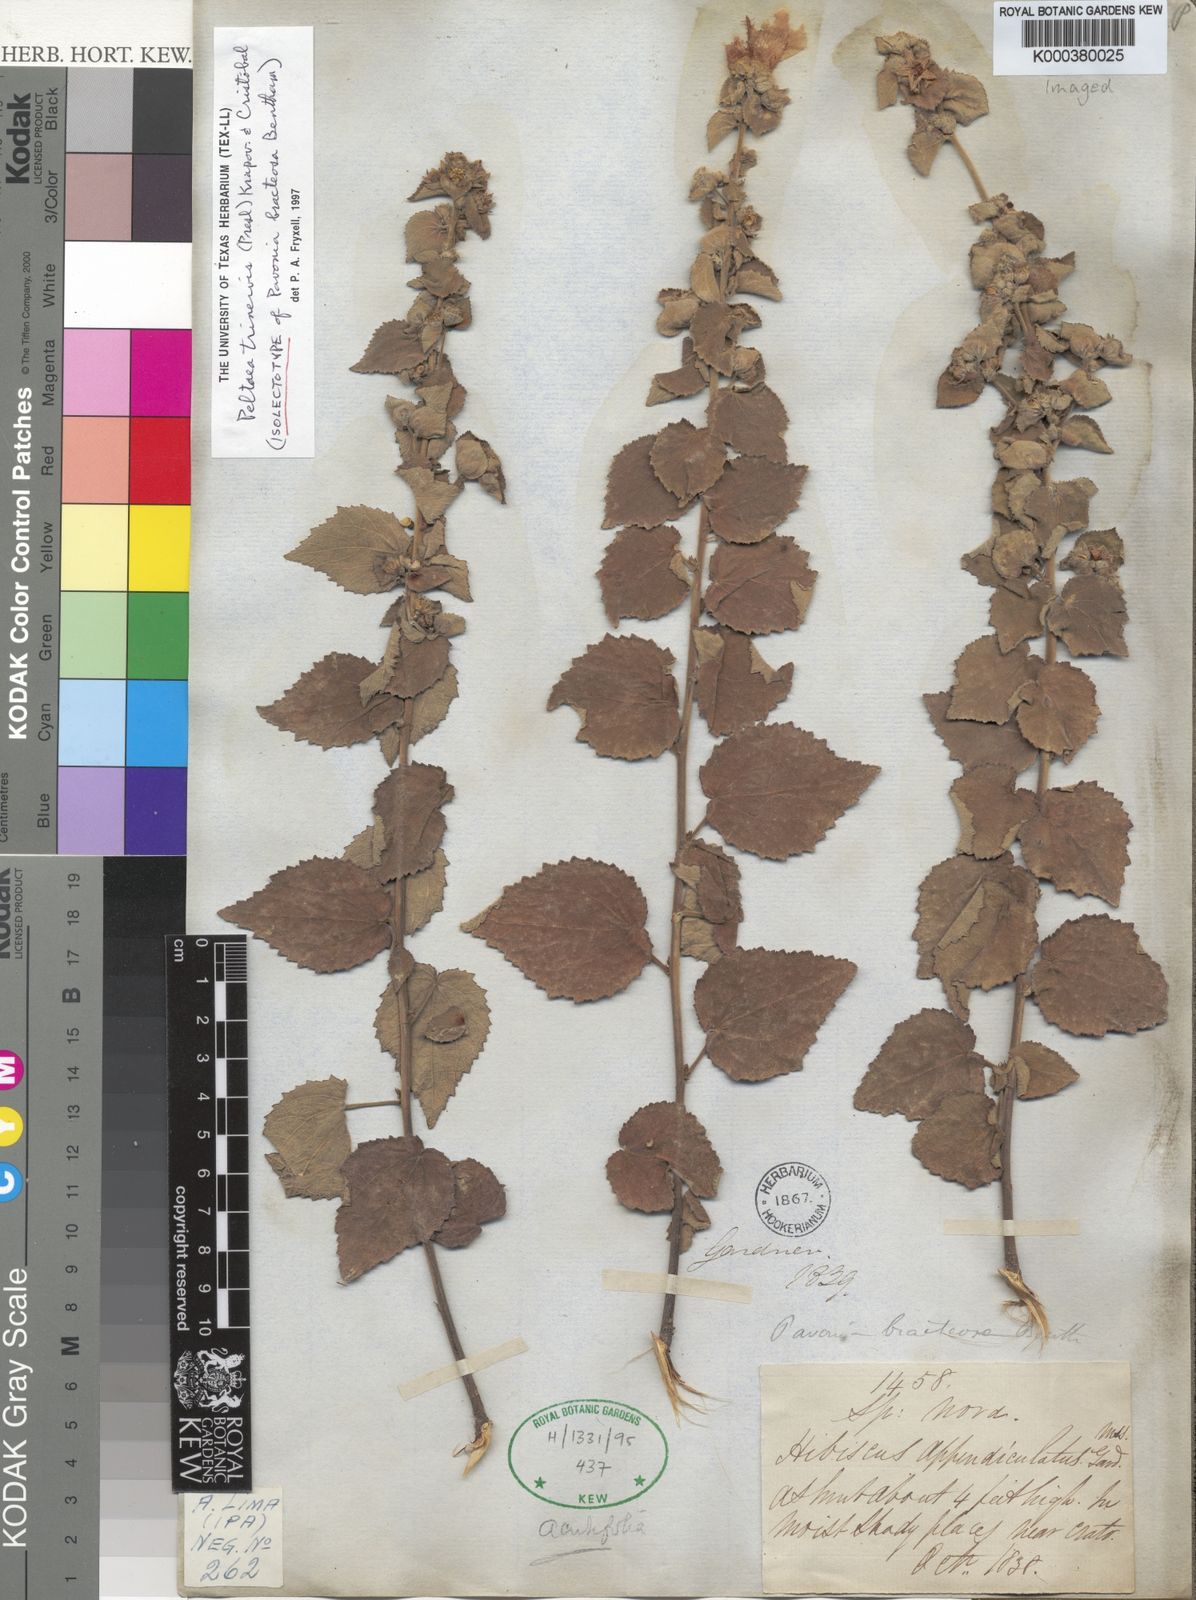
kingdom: Plantae
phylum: Tracheophyta
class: Magnoliopsida
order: Malvales
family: Malvaceae
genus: Peltaea
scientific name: Peltaea trinervis
